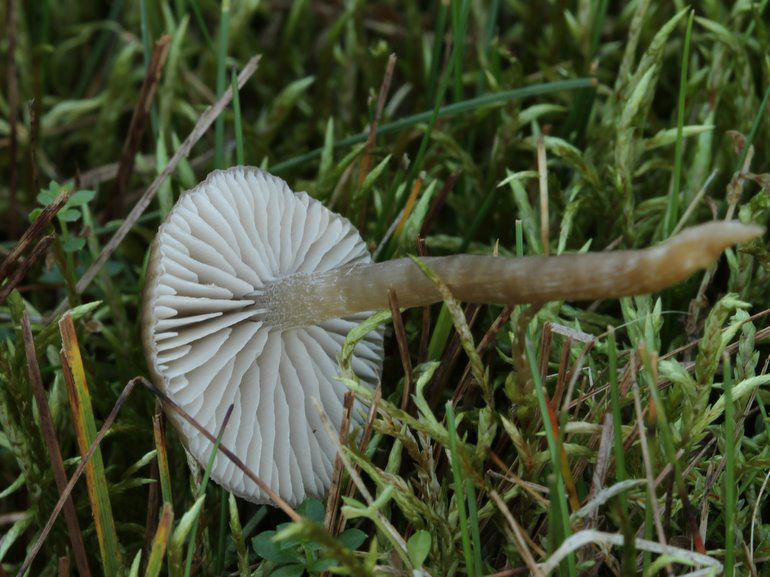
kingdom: Fungi
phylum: Basidiomycota
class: Agaricomycetes
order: Agaricales
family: Entolomataceae
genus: Entocybe
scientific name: Entocybe vinacea
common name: november-rødblad
